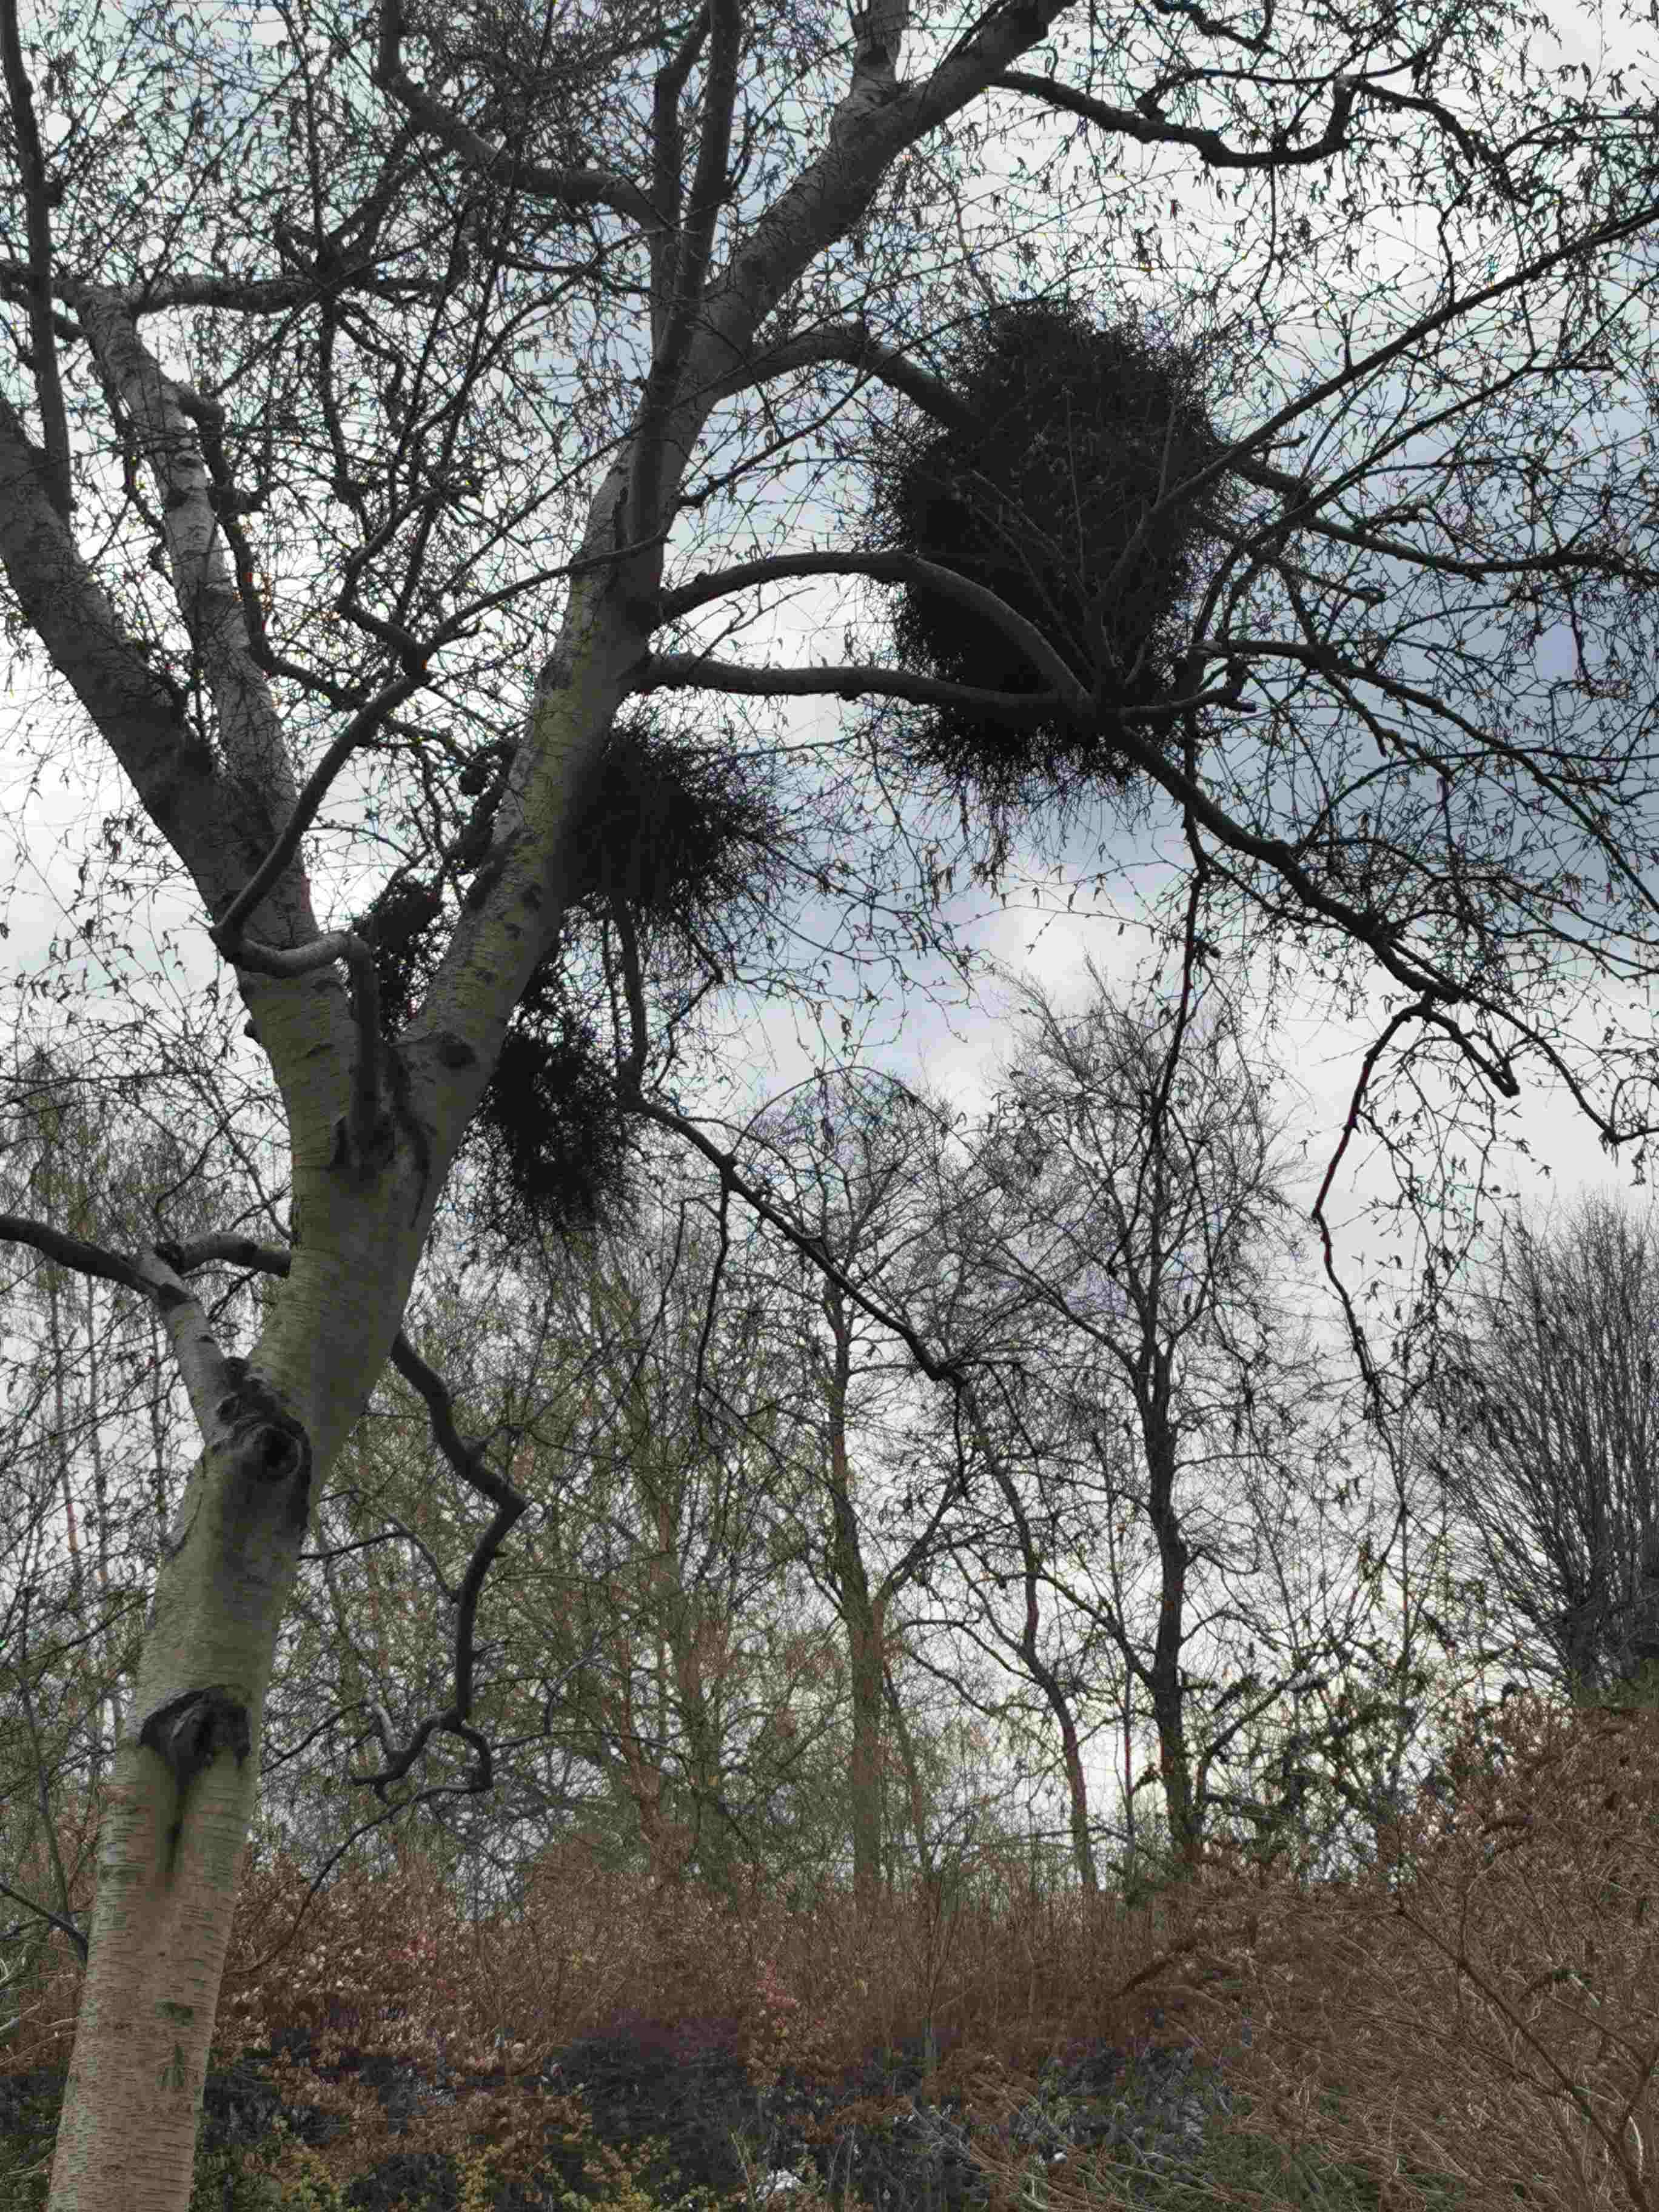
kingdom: Fungi
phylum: Ascomycota
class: Taphrinomycetes
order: Taphrinales
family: Taphrinaceae
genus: Taphrina
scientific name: Taphrina betulina
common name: hekse-sækdug
